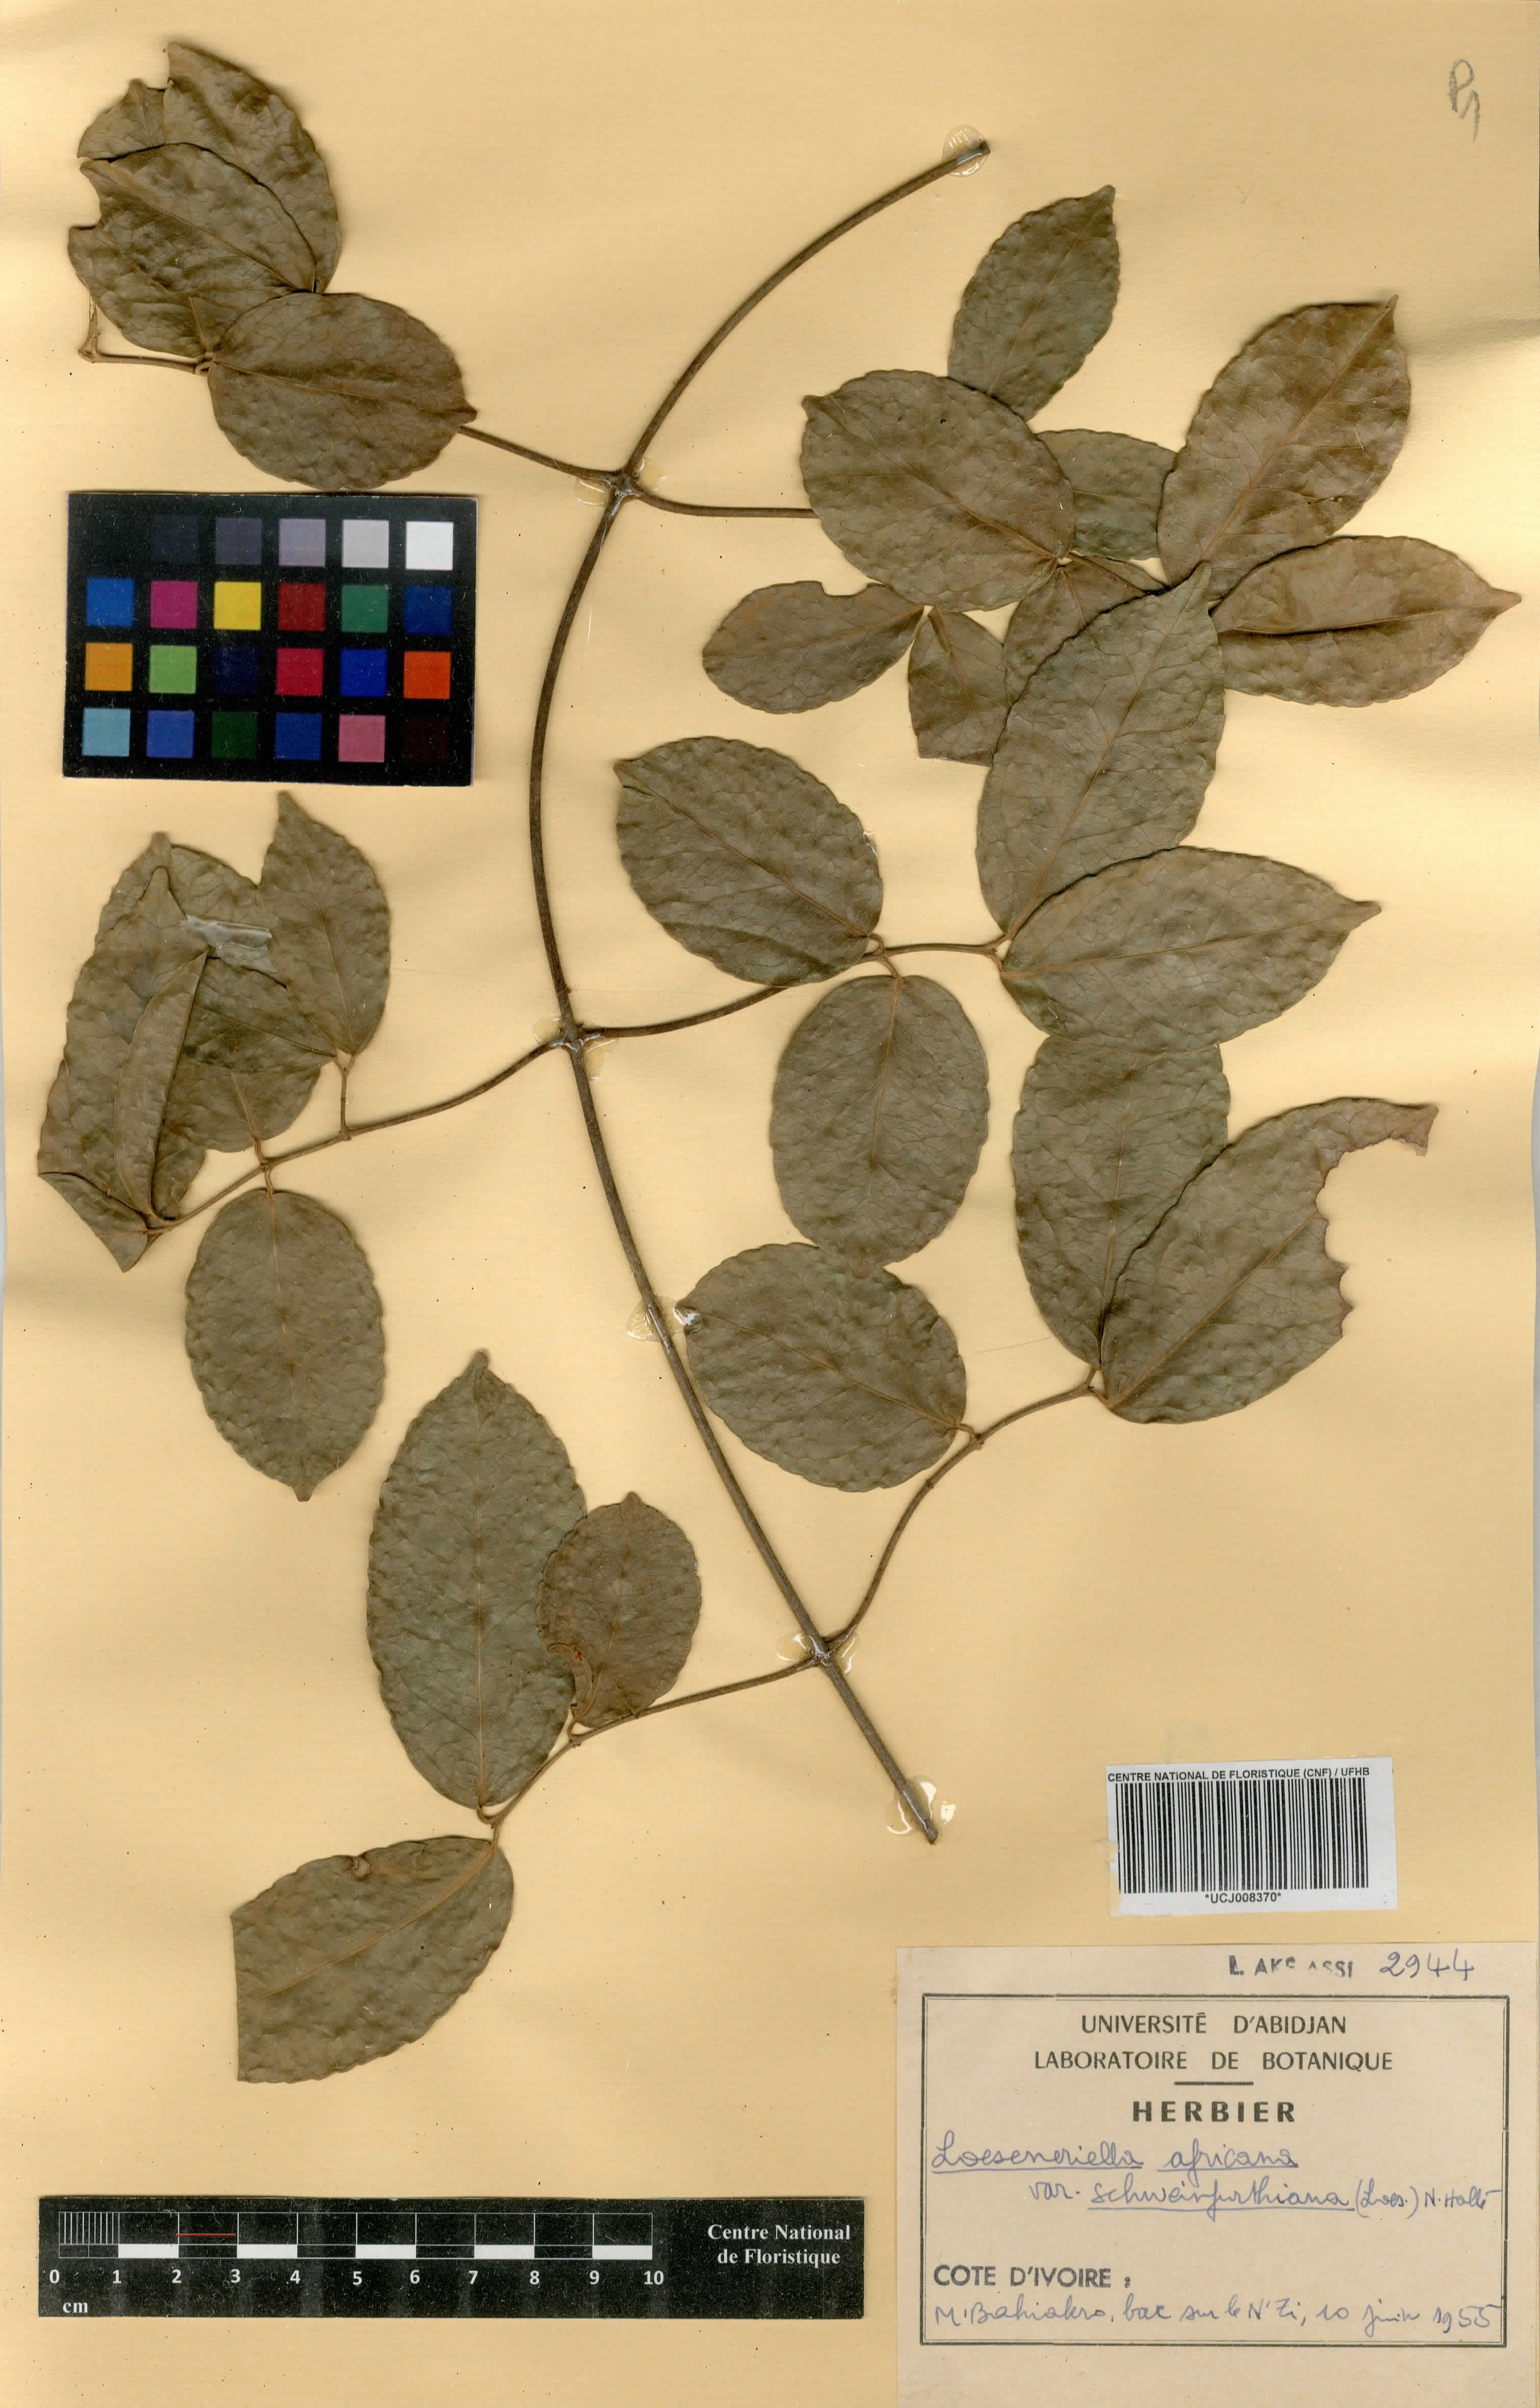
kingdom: Plantae
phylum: Tracheophyta
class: Magnoliopsida
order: Celastrales
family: Celastraceae
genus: Loeseneriella
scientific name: Loeseneriella africana
